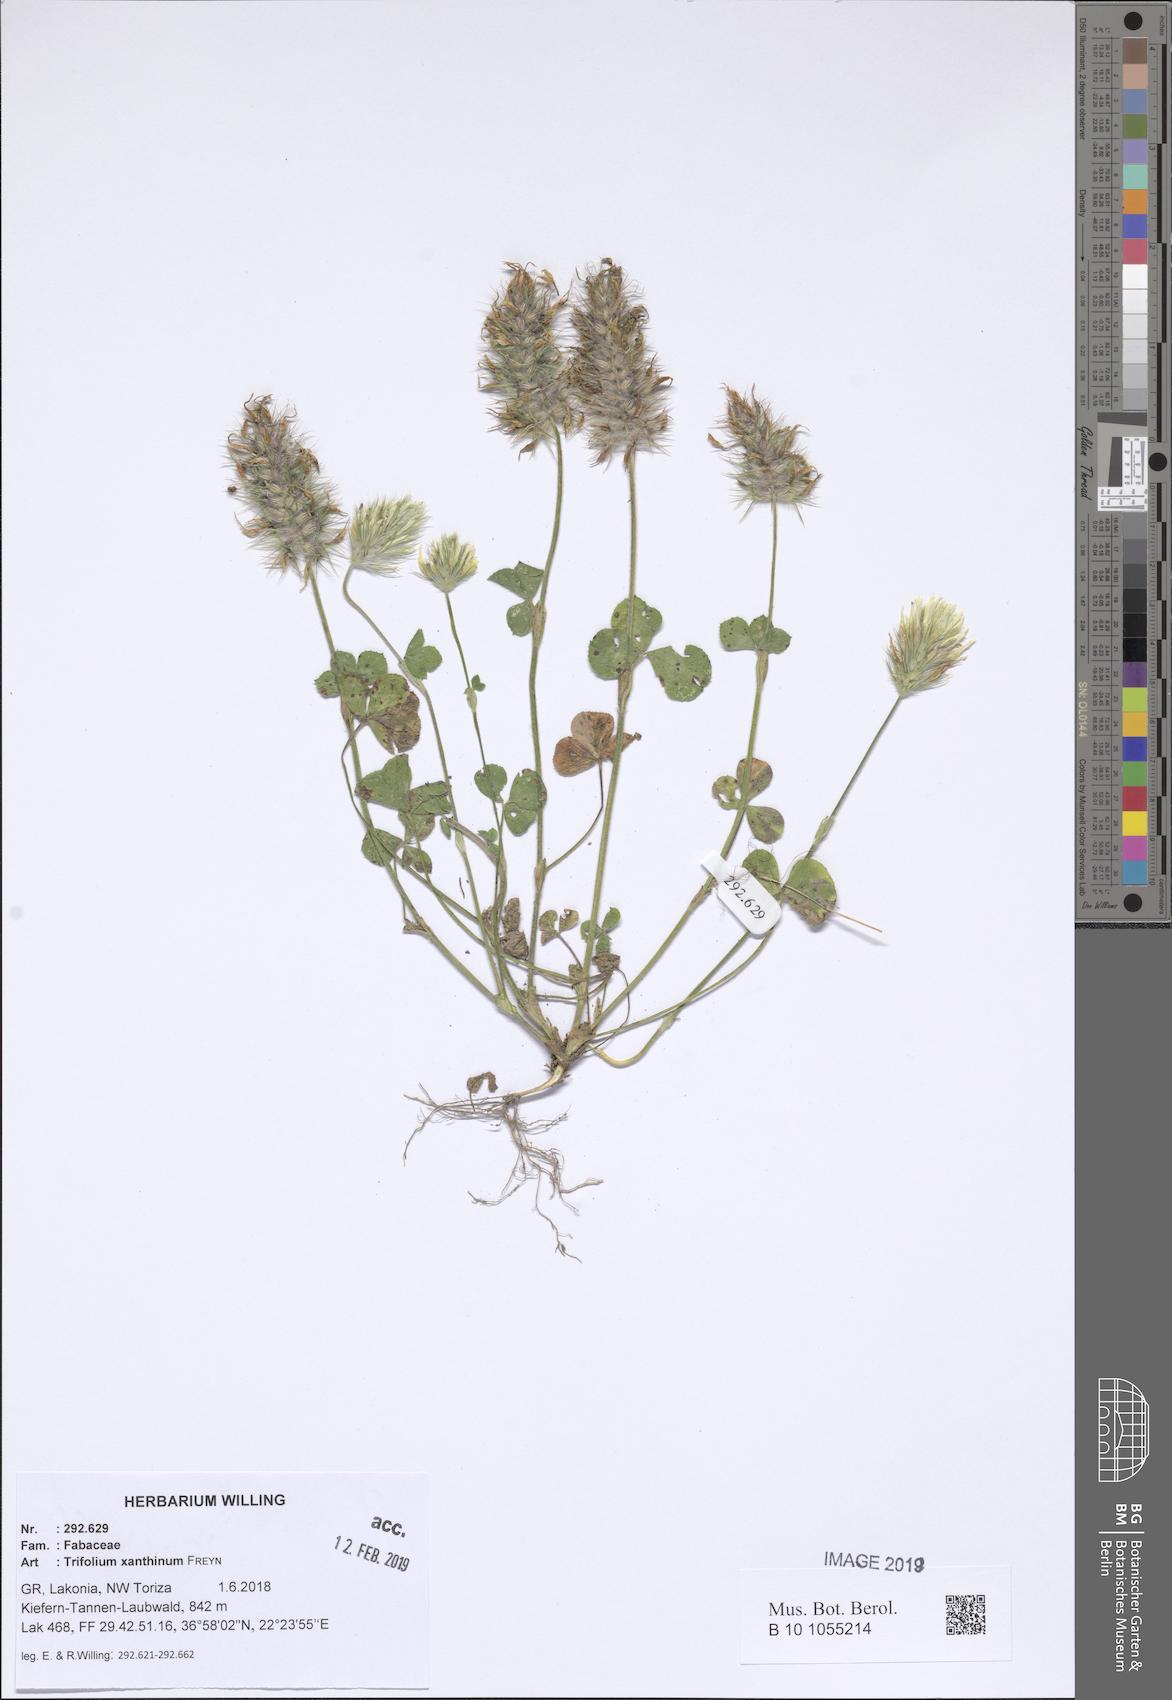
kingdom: Plantae
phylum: Tracheophyta
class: Magnoliopsida
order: Fabales
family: Fabaceae
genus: Trifolium
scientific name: Trifolium xanthinum
